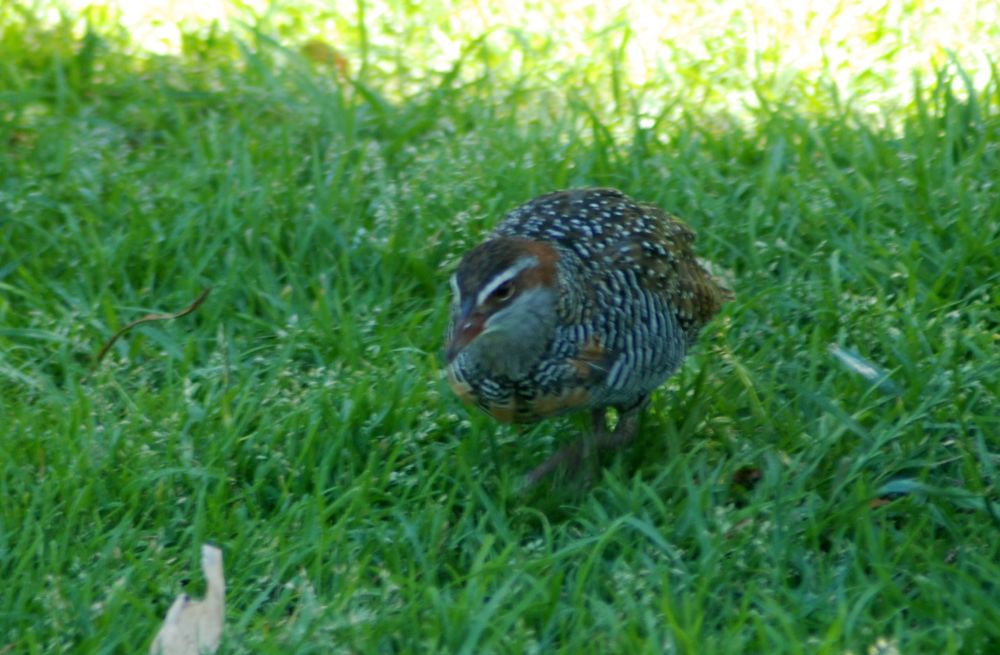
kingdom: Animalia
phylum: Chordata
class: Aves
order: Gruiformes
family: Rallidae
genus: Gallirallus
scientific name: Gallirallus philippensis
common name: Buff-banded rail
